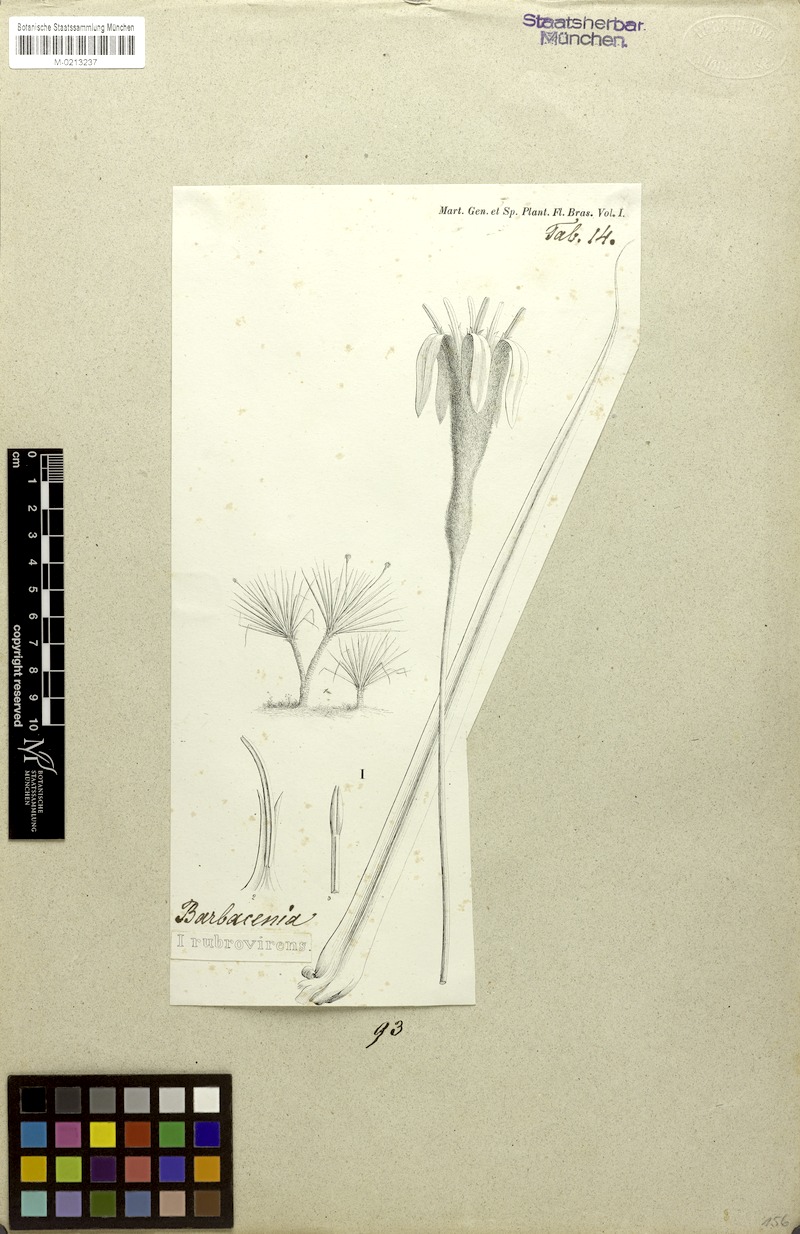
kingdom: Plantae
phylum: Tracheophyta
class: Liliopsida
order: Pandanales
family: Velloziaceae
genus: Barbacenia
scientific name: Barbacenia rubrovirens
